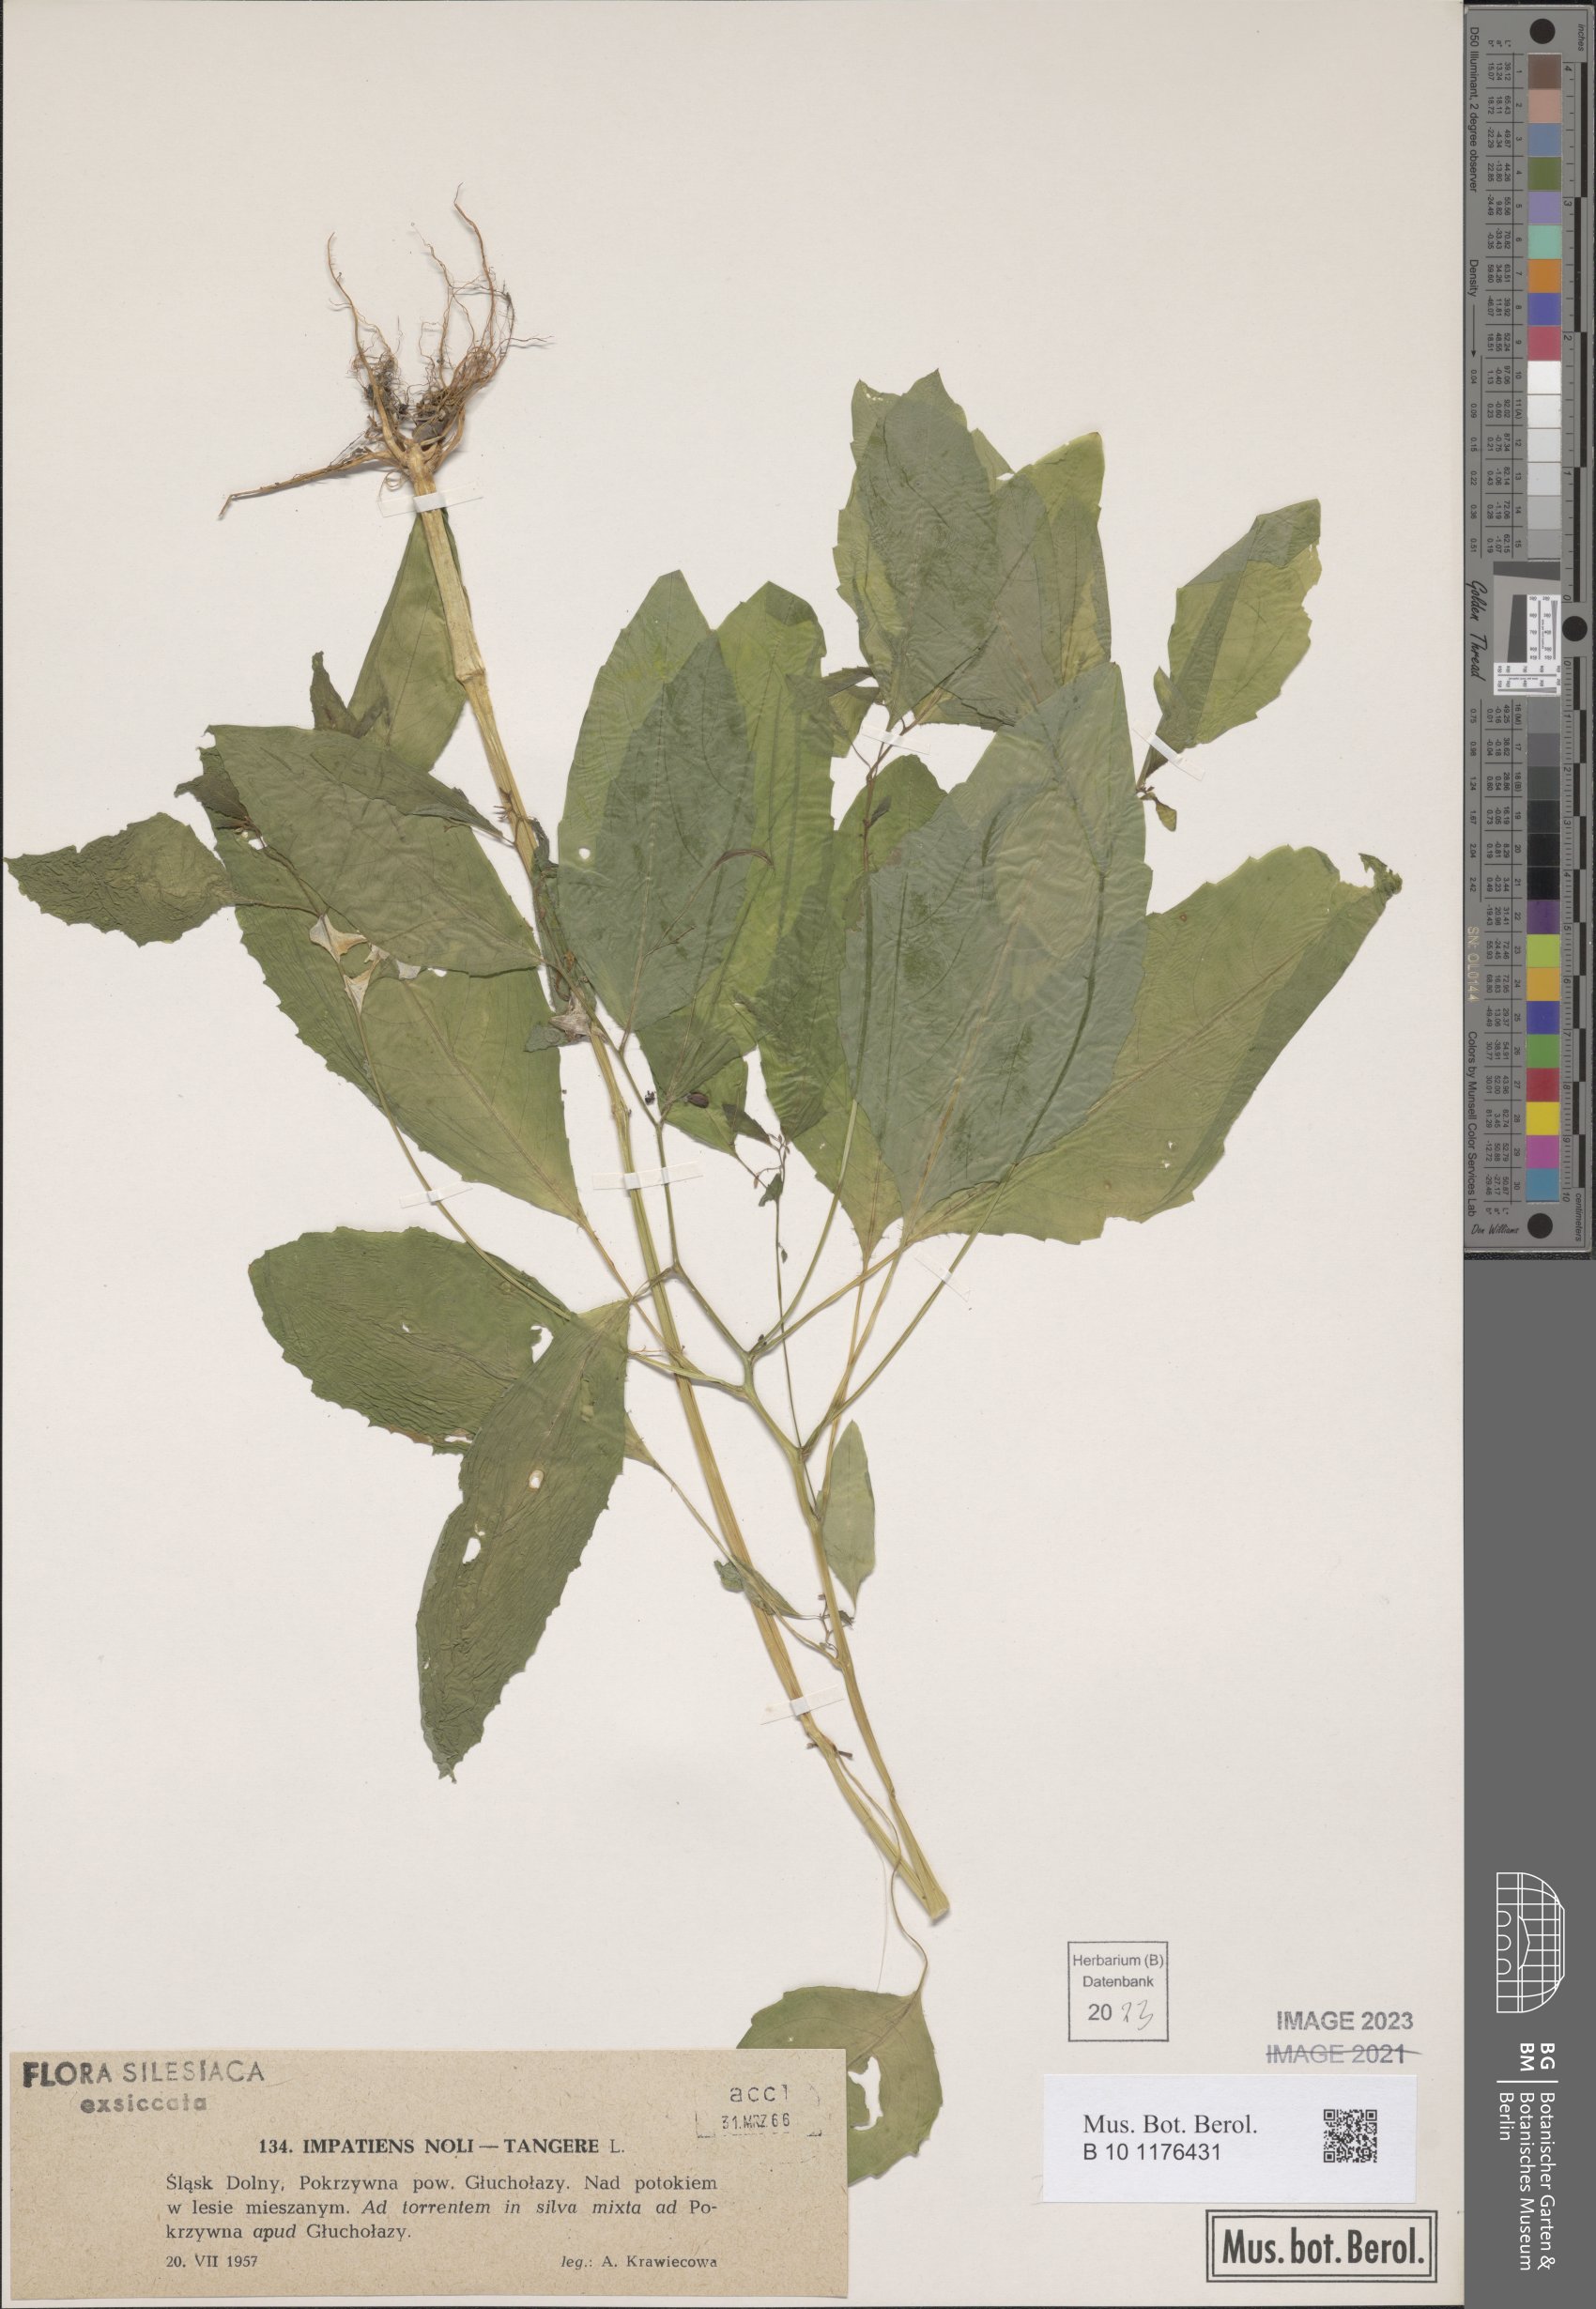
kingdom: Plantae
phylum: Tracheophyta
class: Magnoliopsida
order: Ericales
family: Balsaminaceae
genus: Impatiens
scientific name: Impatiens noli-tangere
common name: Touch-me-not balsam
